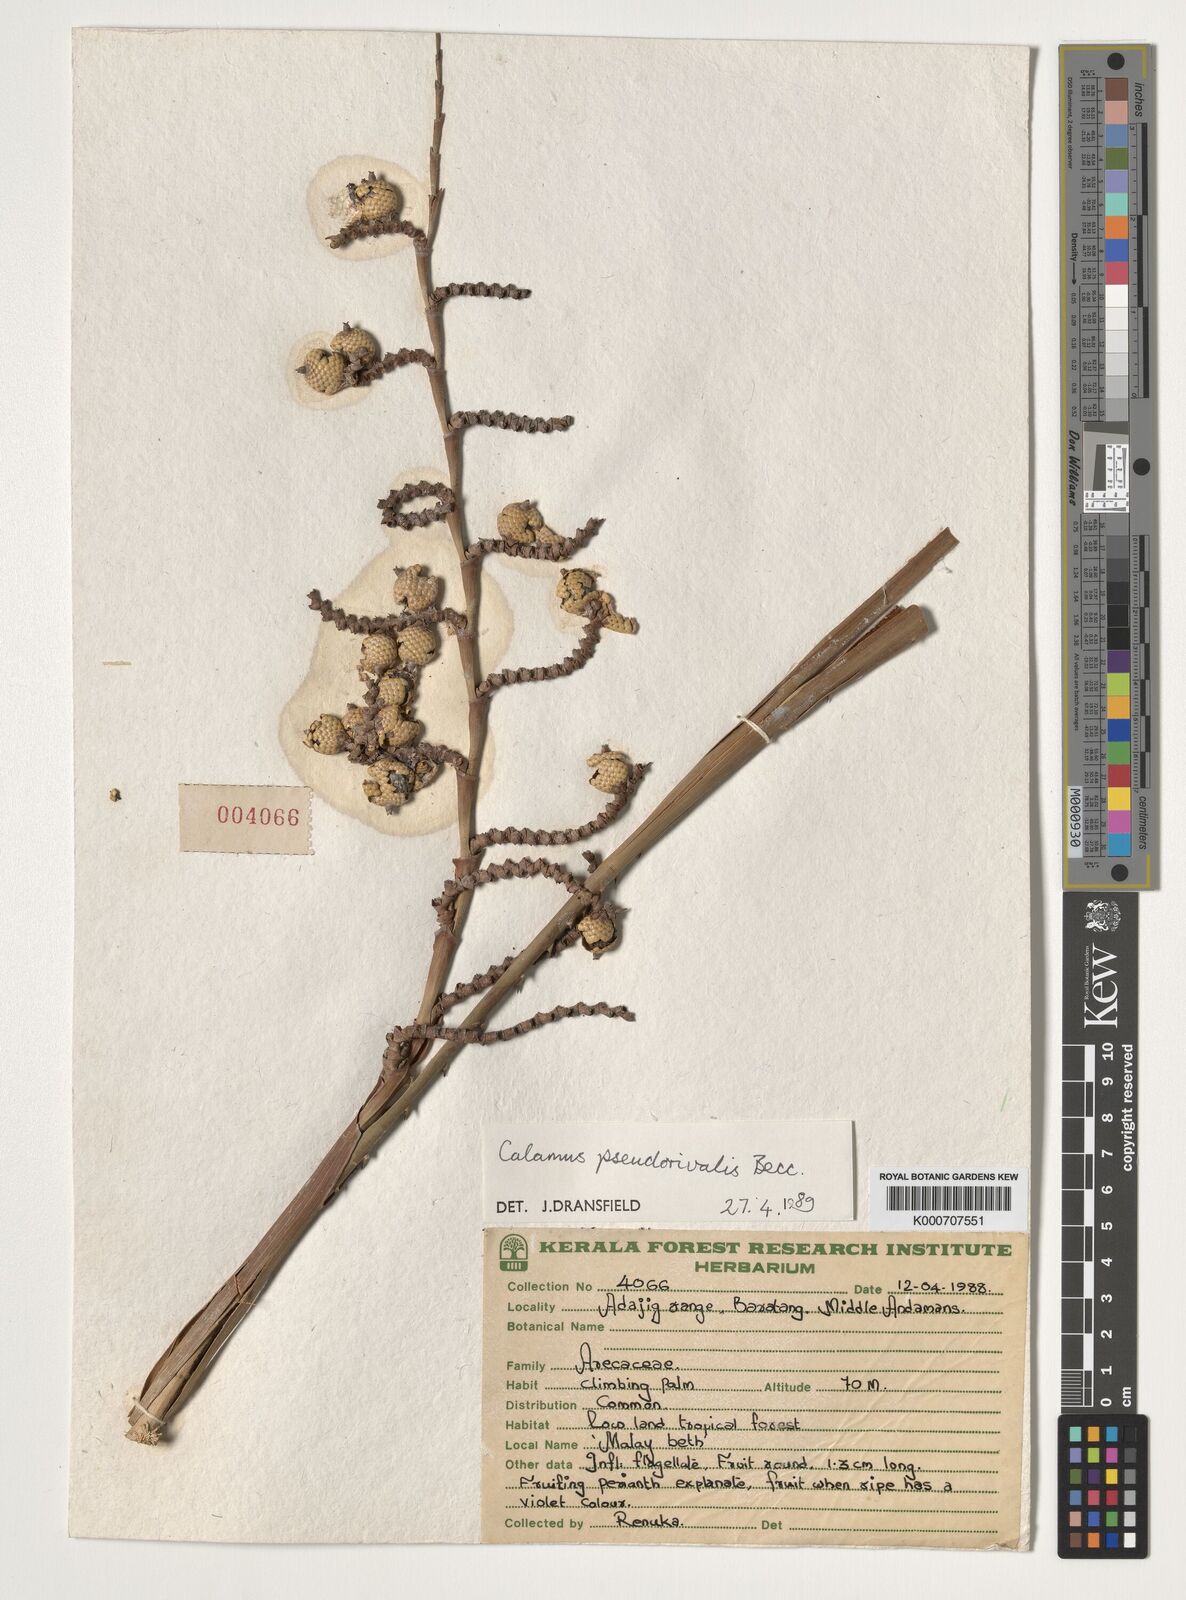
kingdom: Plantae
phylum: Tracheophyta
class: Liliopsida
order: Arecales
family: Arecaceae
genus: Calamus
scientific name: Calamus nicobaricus
